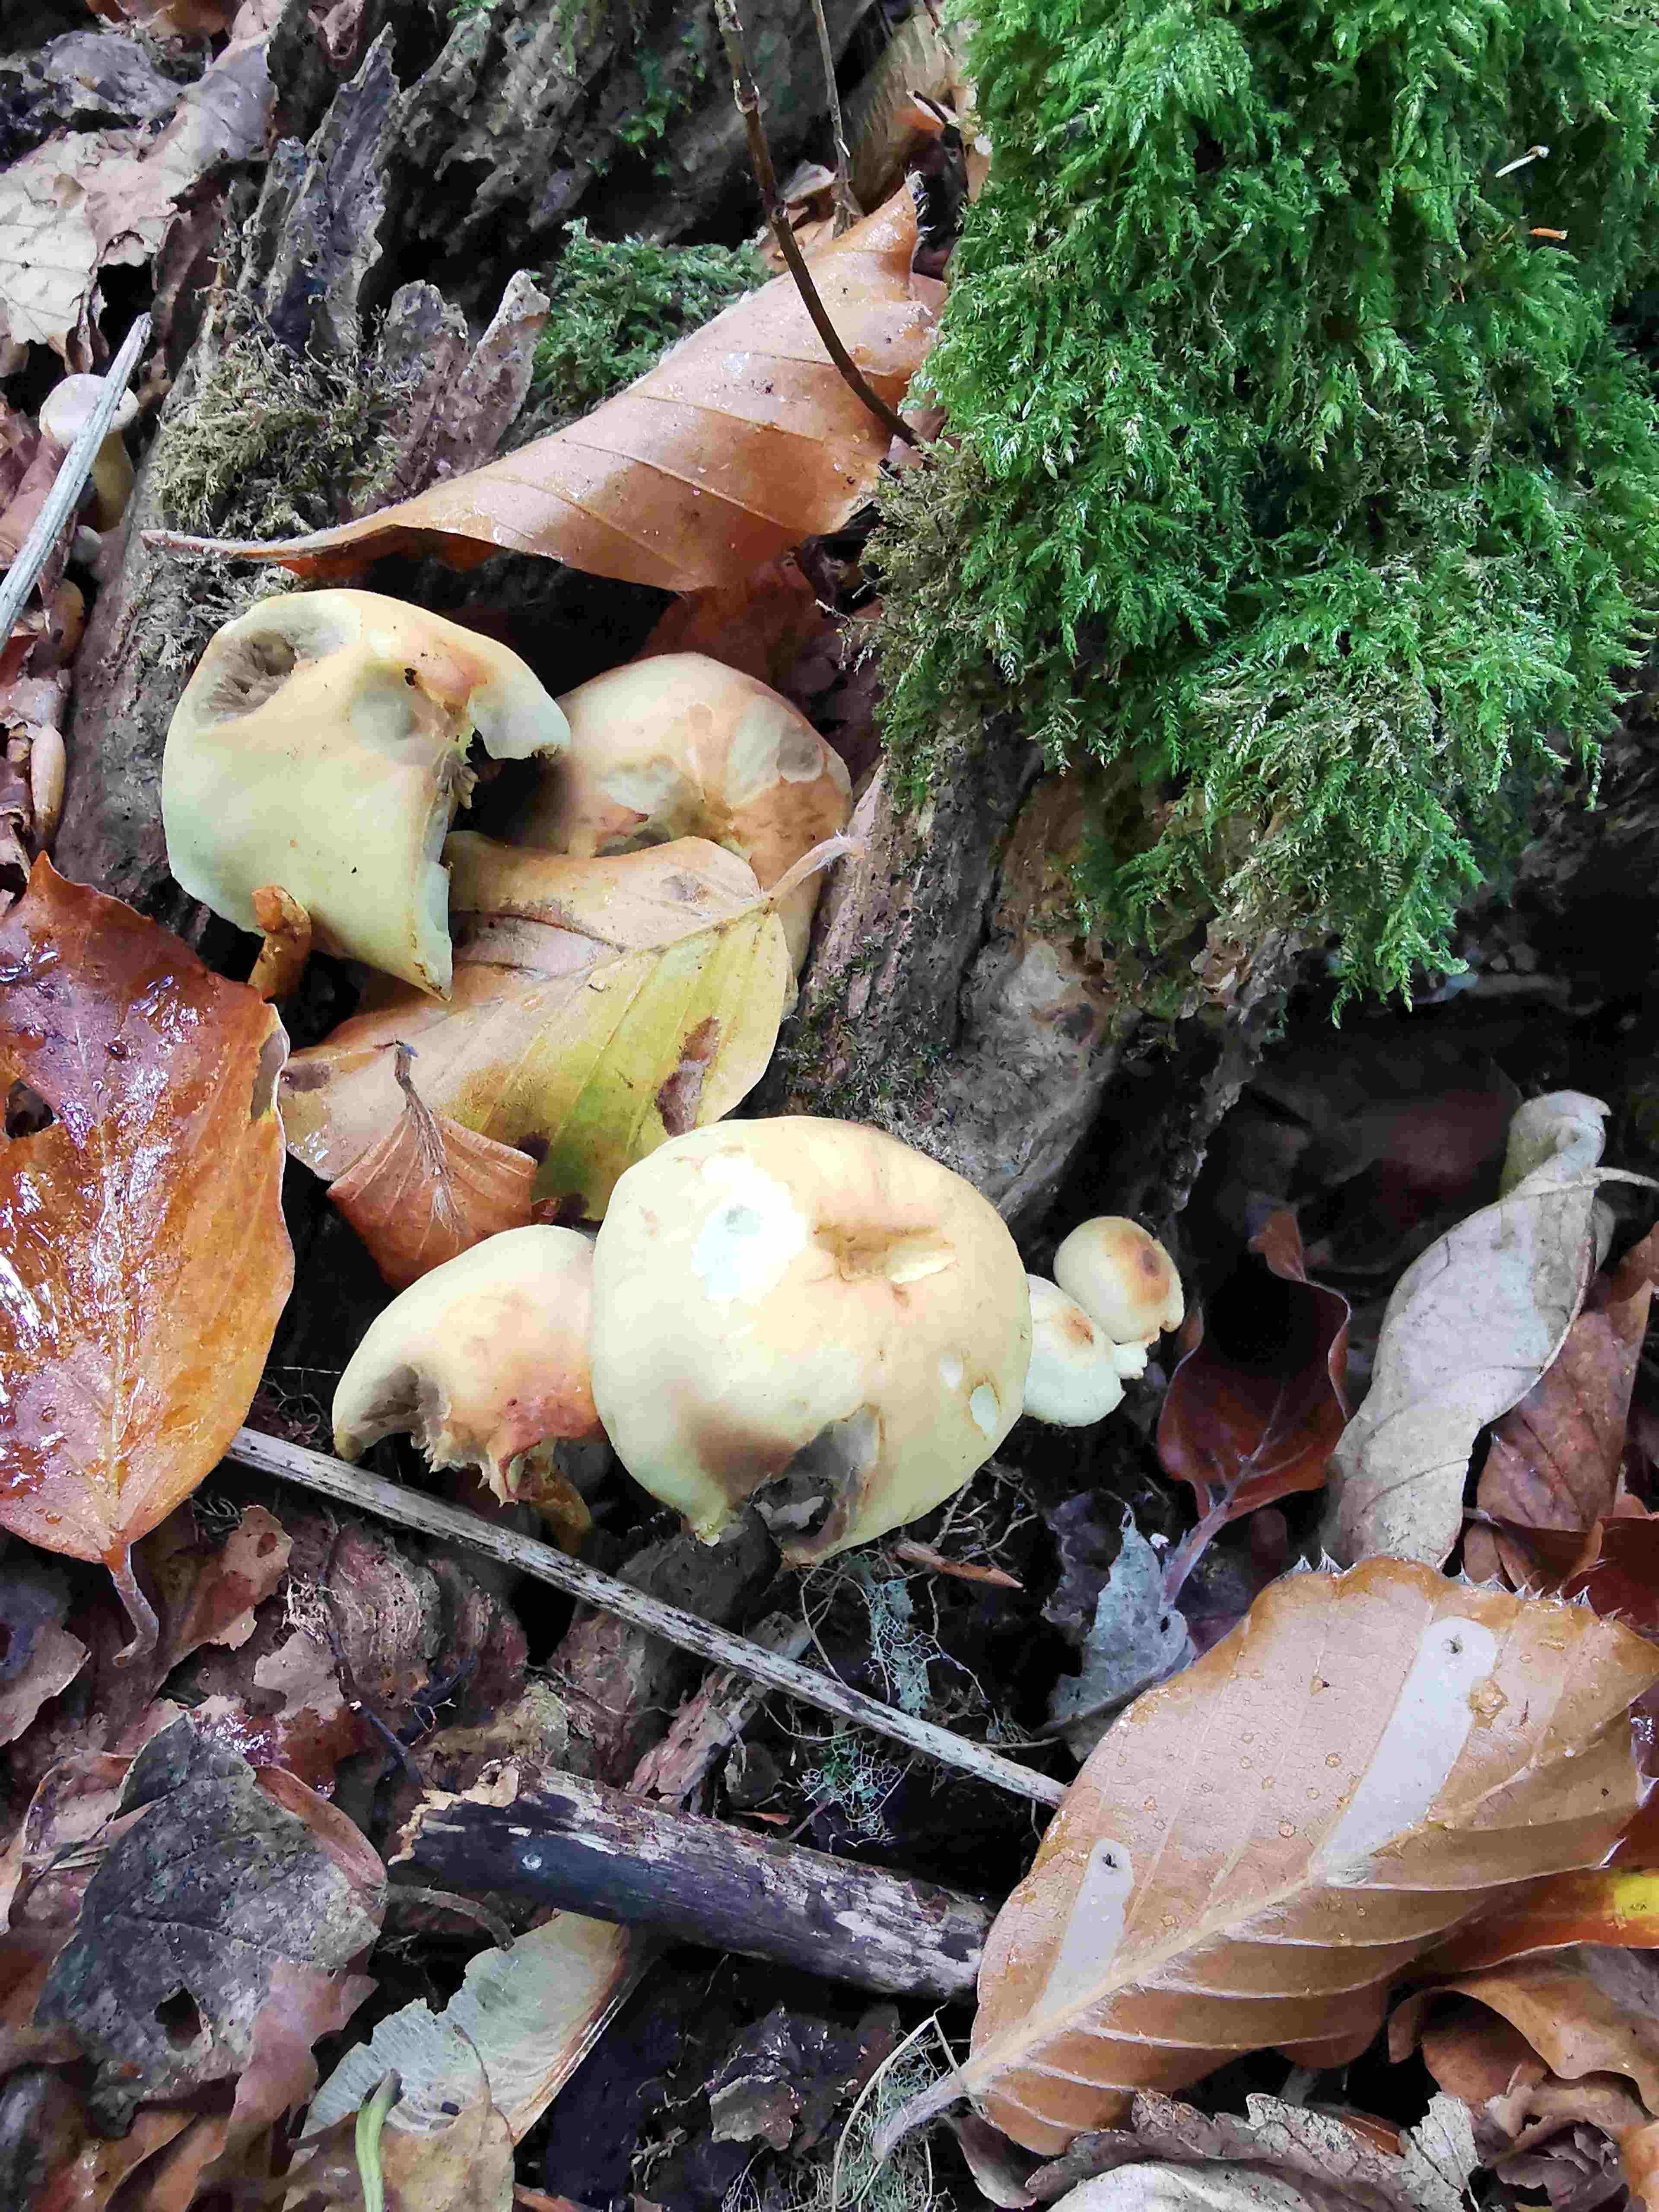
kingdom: Fungi
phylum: Basidiomycota
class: Agaricomycetes
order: Agaricales
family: Strophariaceae
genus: Hypholoma
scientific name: Hypholoma fasciculare
